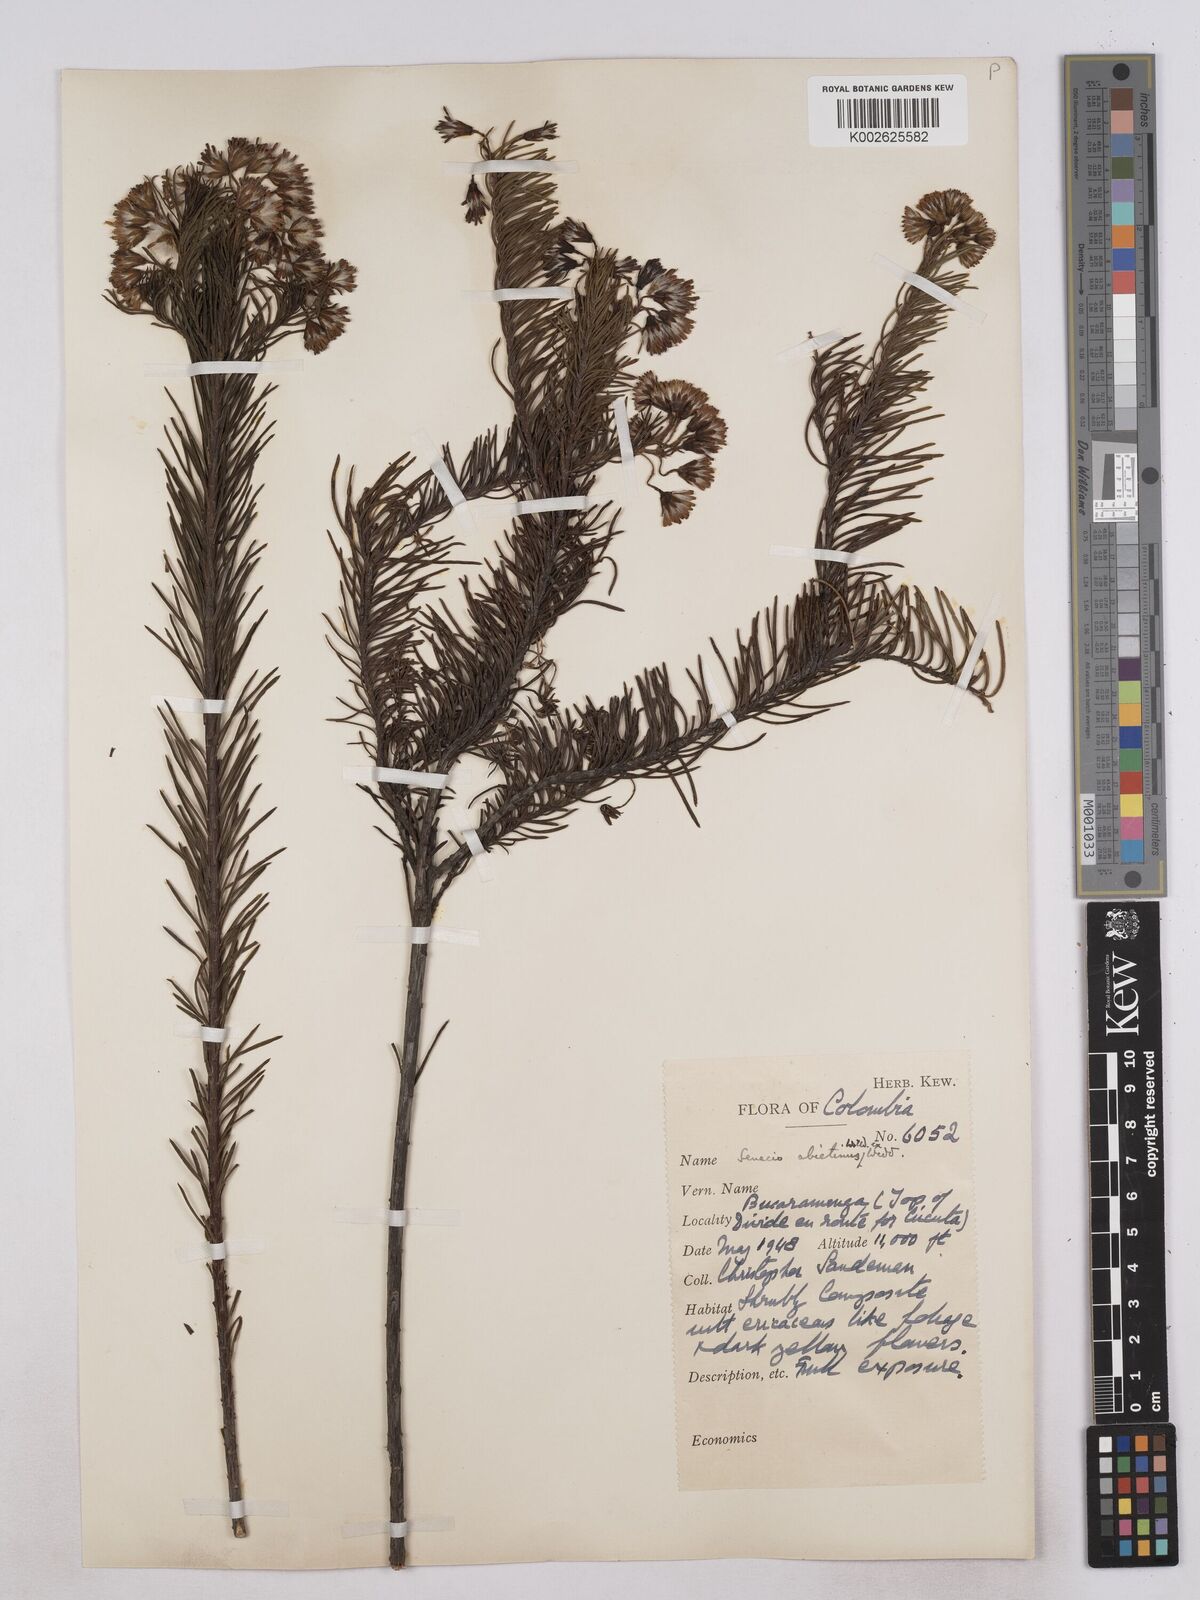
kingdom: Plantae
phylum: Tracheophyta
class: Magnoliopsida
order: Asterales
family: Asteraceae
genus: Monticalia
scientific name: Monticalia abietina
